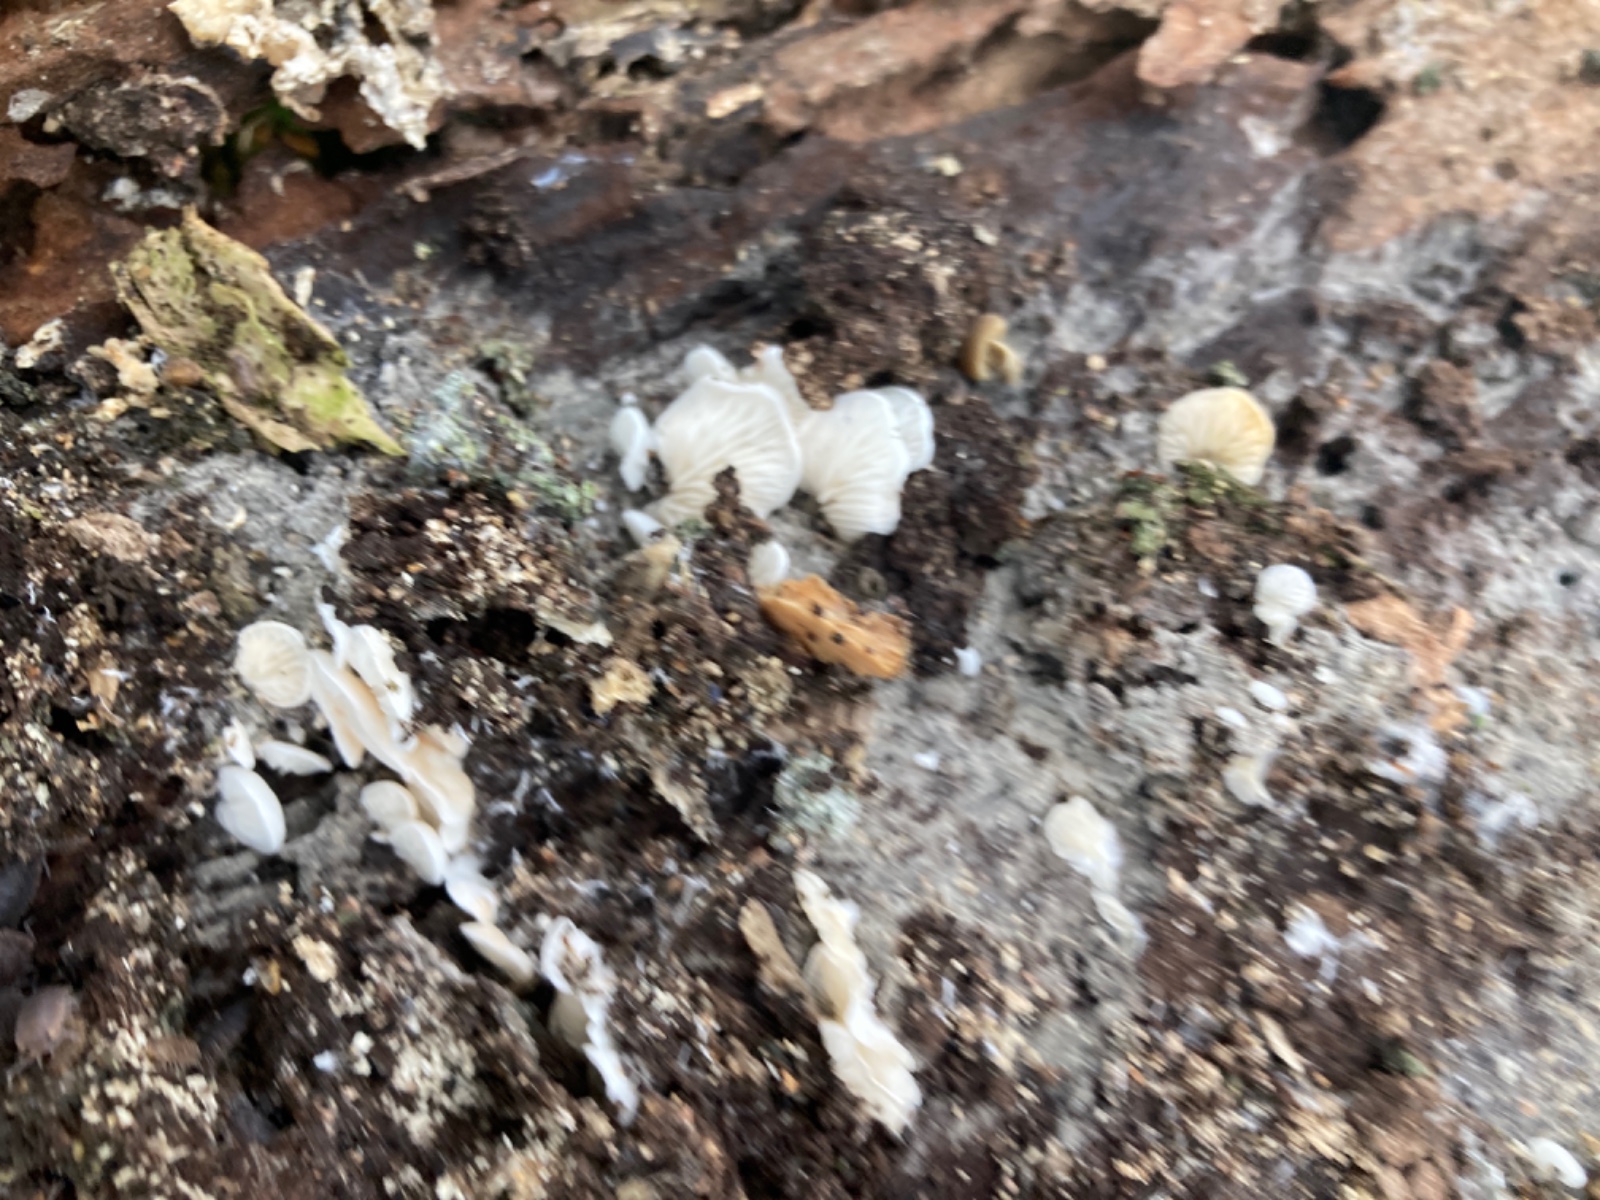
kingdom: Fungi
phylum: Basidiomycota
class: Agaricomycetes
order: Agaricales
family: Entolomataceae
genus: Clitopilus
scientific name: Clitopilus hobsonii
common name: Miller's oysterling
